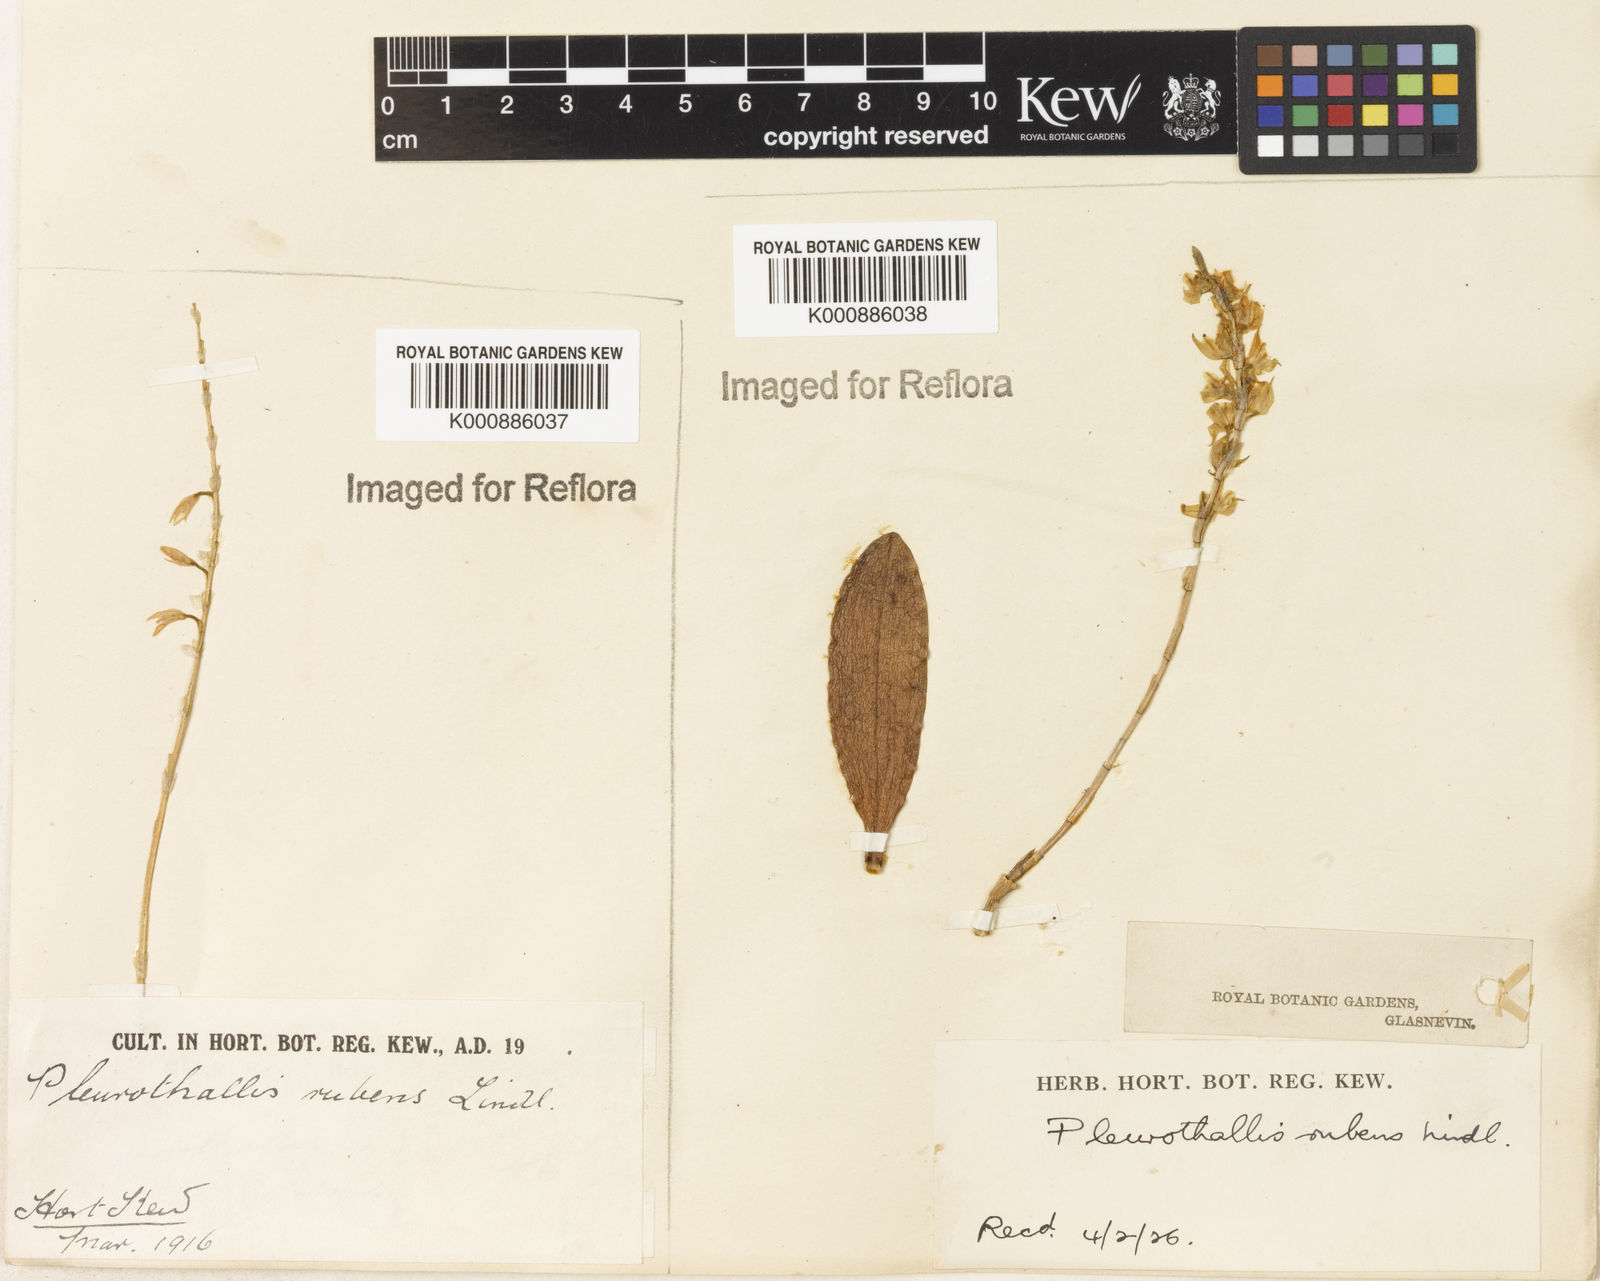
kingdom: Plantae
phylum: Tracheophyta
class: Liliopsida
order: Asparagales
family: Orchidaceae
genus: Stelis
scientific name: Stelis montserratii
